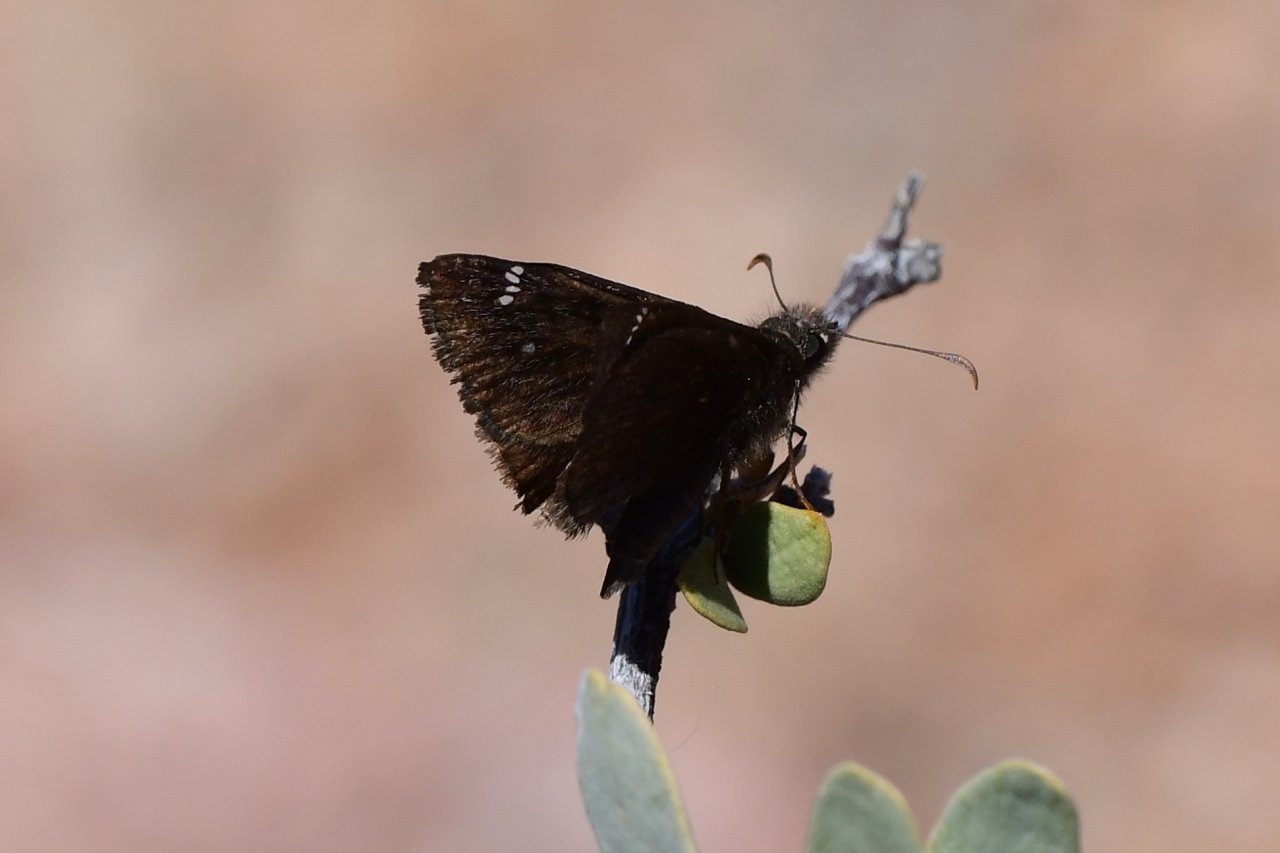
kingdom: Animalia
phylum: Arthropoda
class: Insecta
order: Lepidoptera
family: Hesperiidae
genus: Erynnis
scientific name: Erynnis
